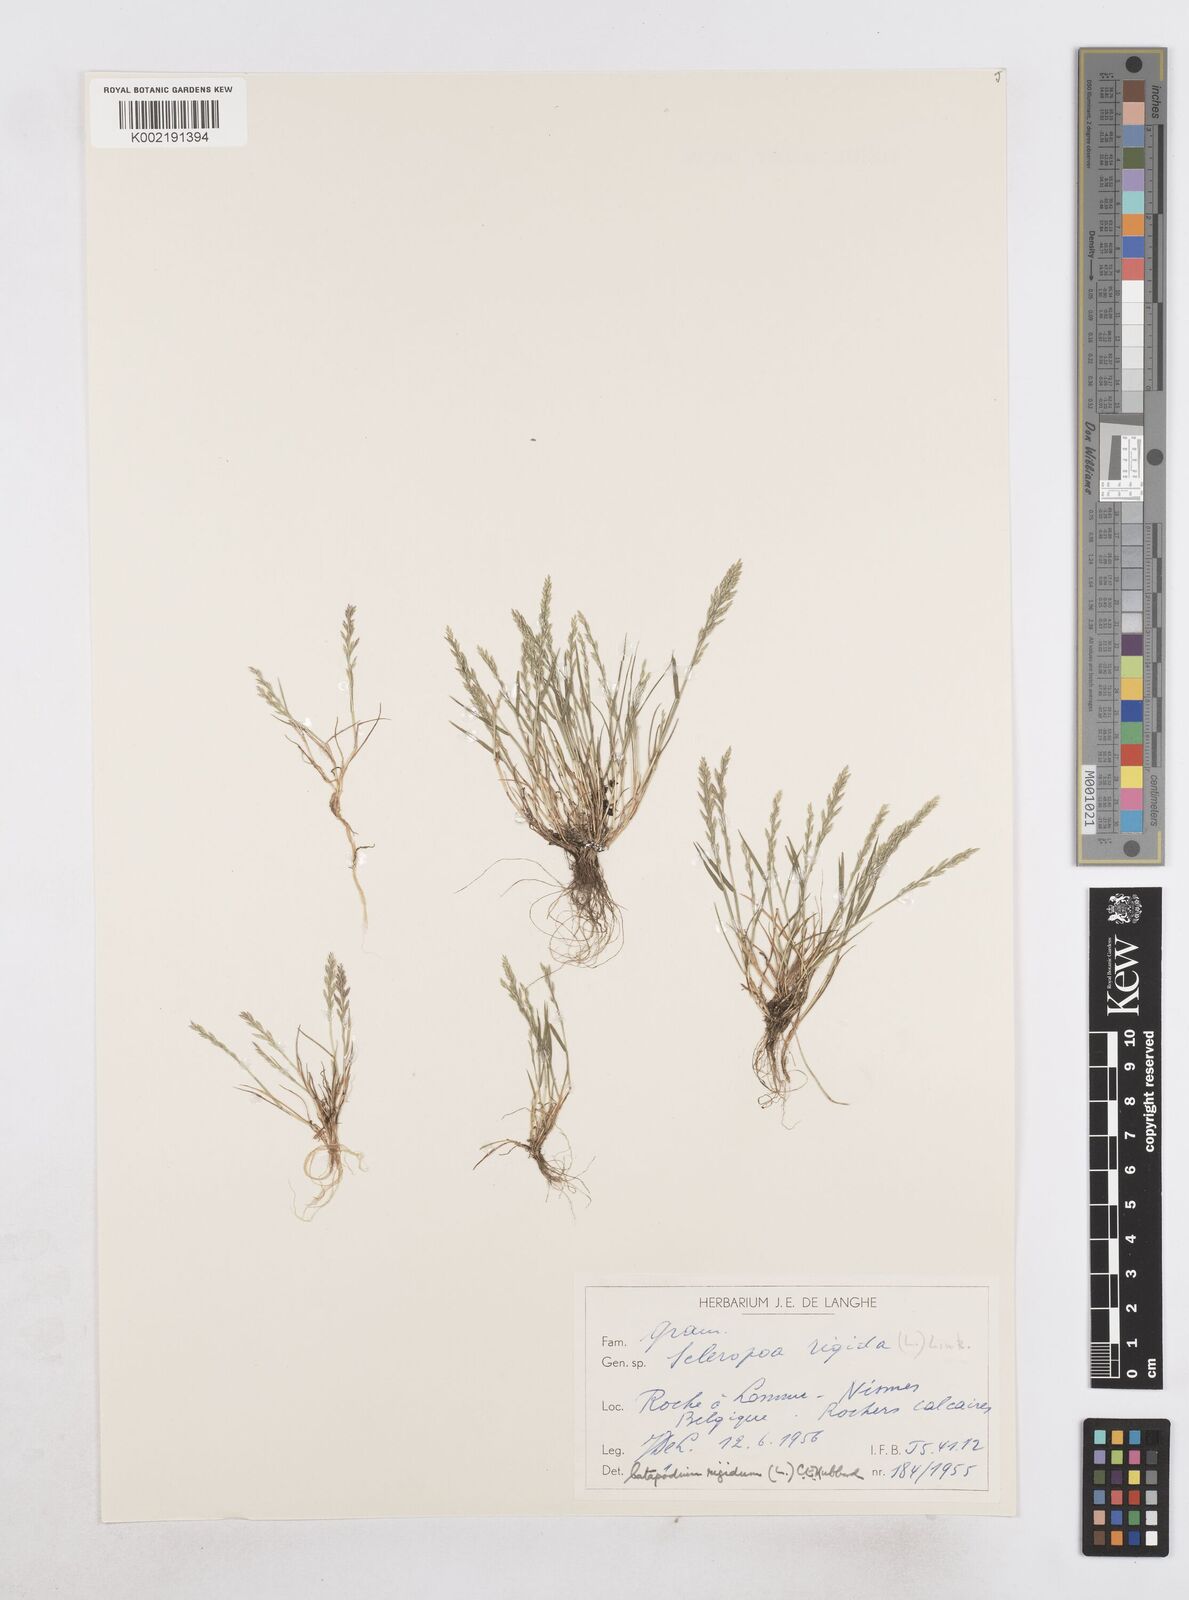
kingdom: Plantae
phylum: Tracheophyta
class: Liliopsida
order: Poales
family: Poaceae
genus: Catapodium
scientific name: Catapodium rigidum
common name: Fern-grass
